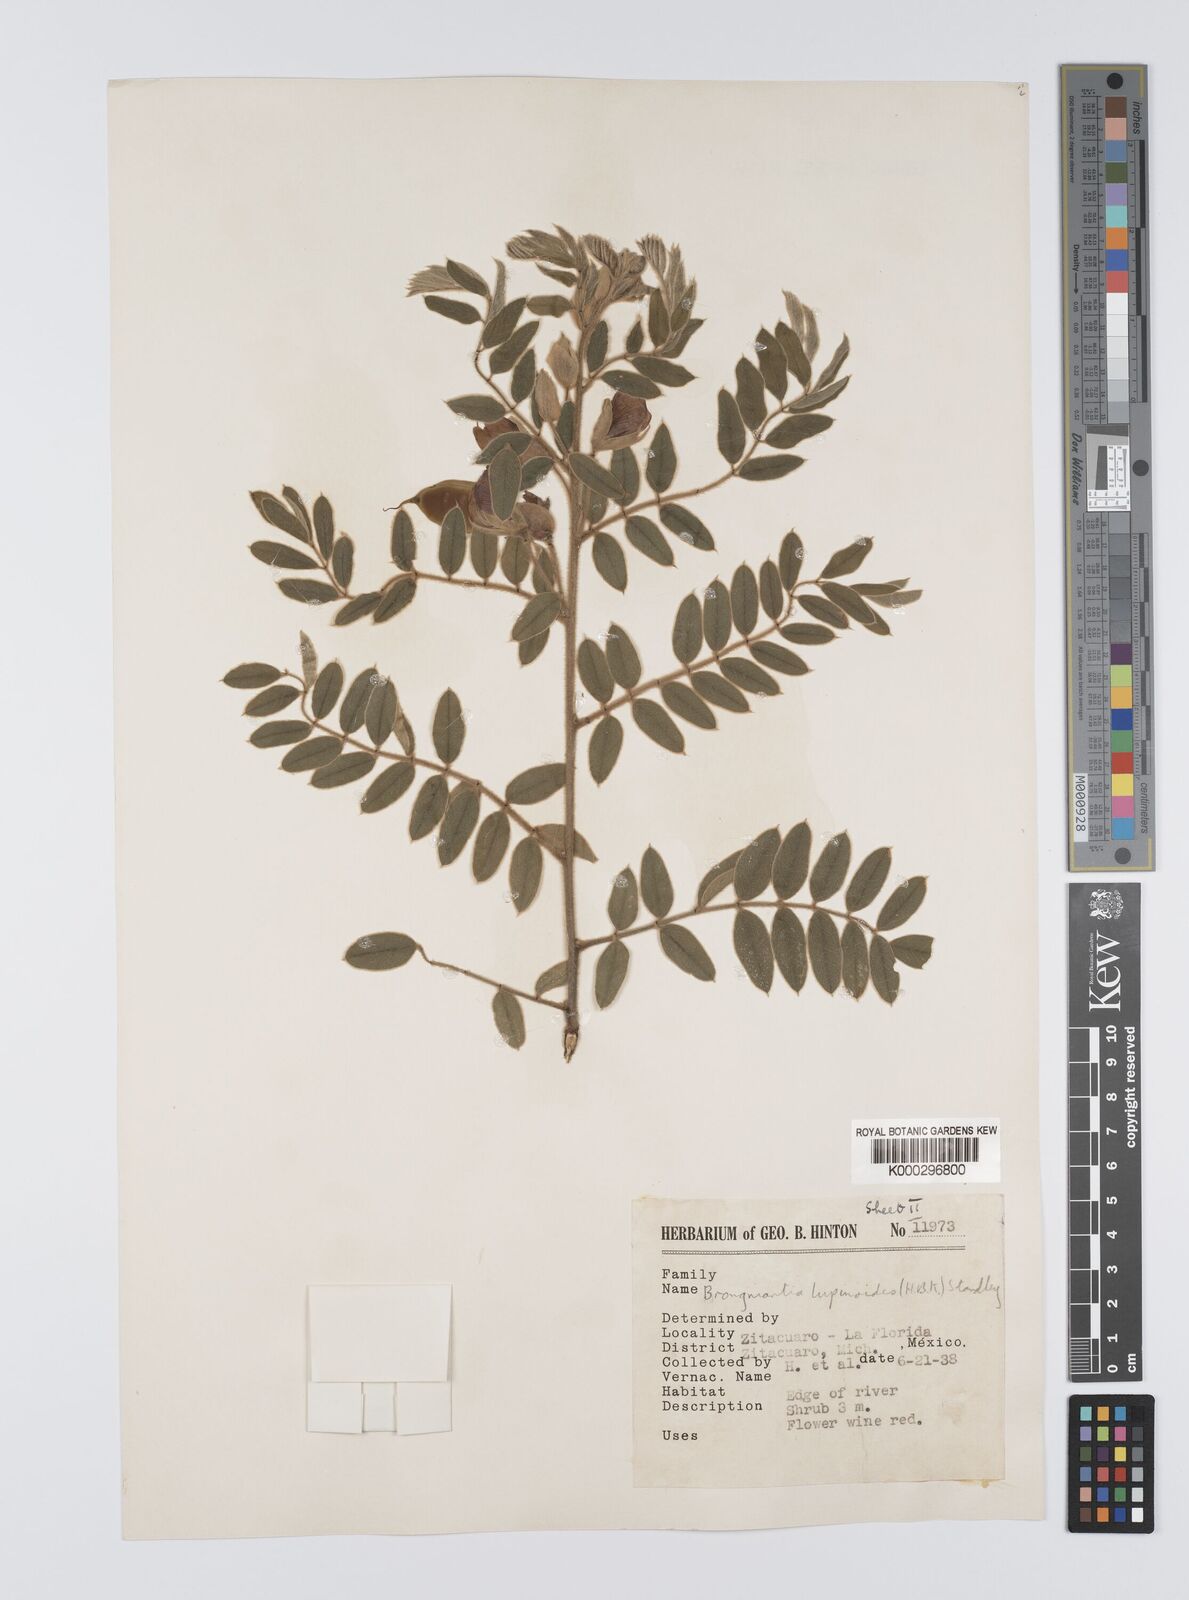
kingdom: Plantae
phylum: Tracheophyta
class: Magnoliopsida
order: Fabales
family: Fabaceae
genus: Brongniartia
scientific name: Brongniartia
